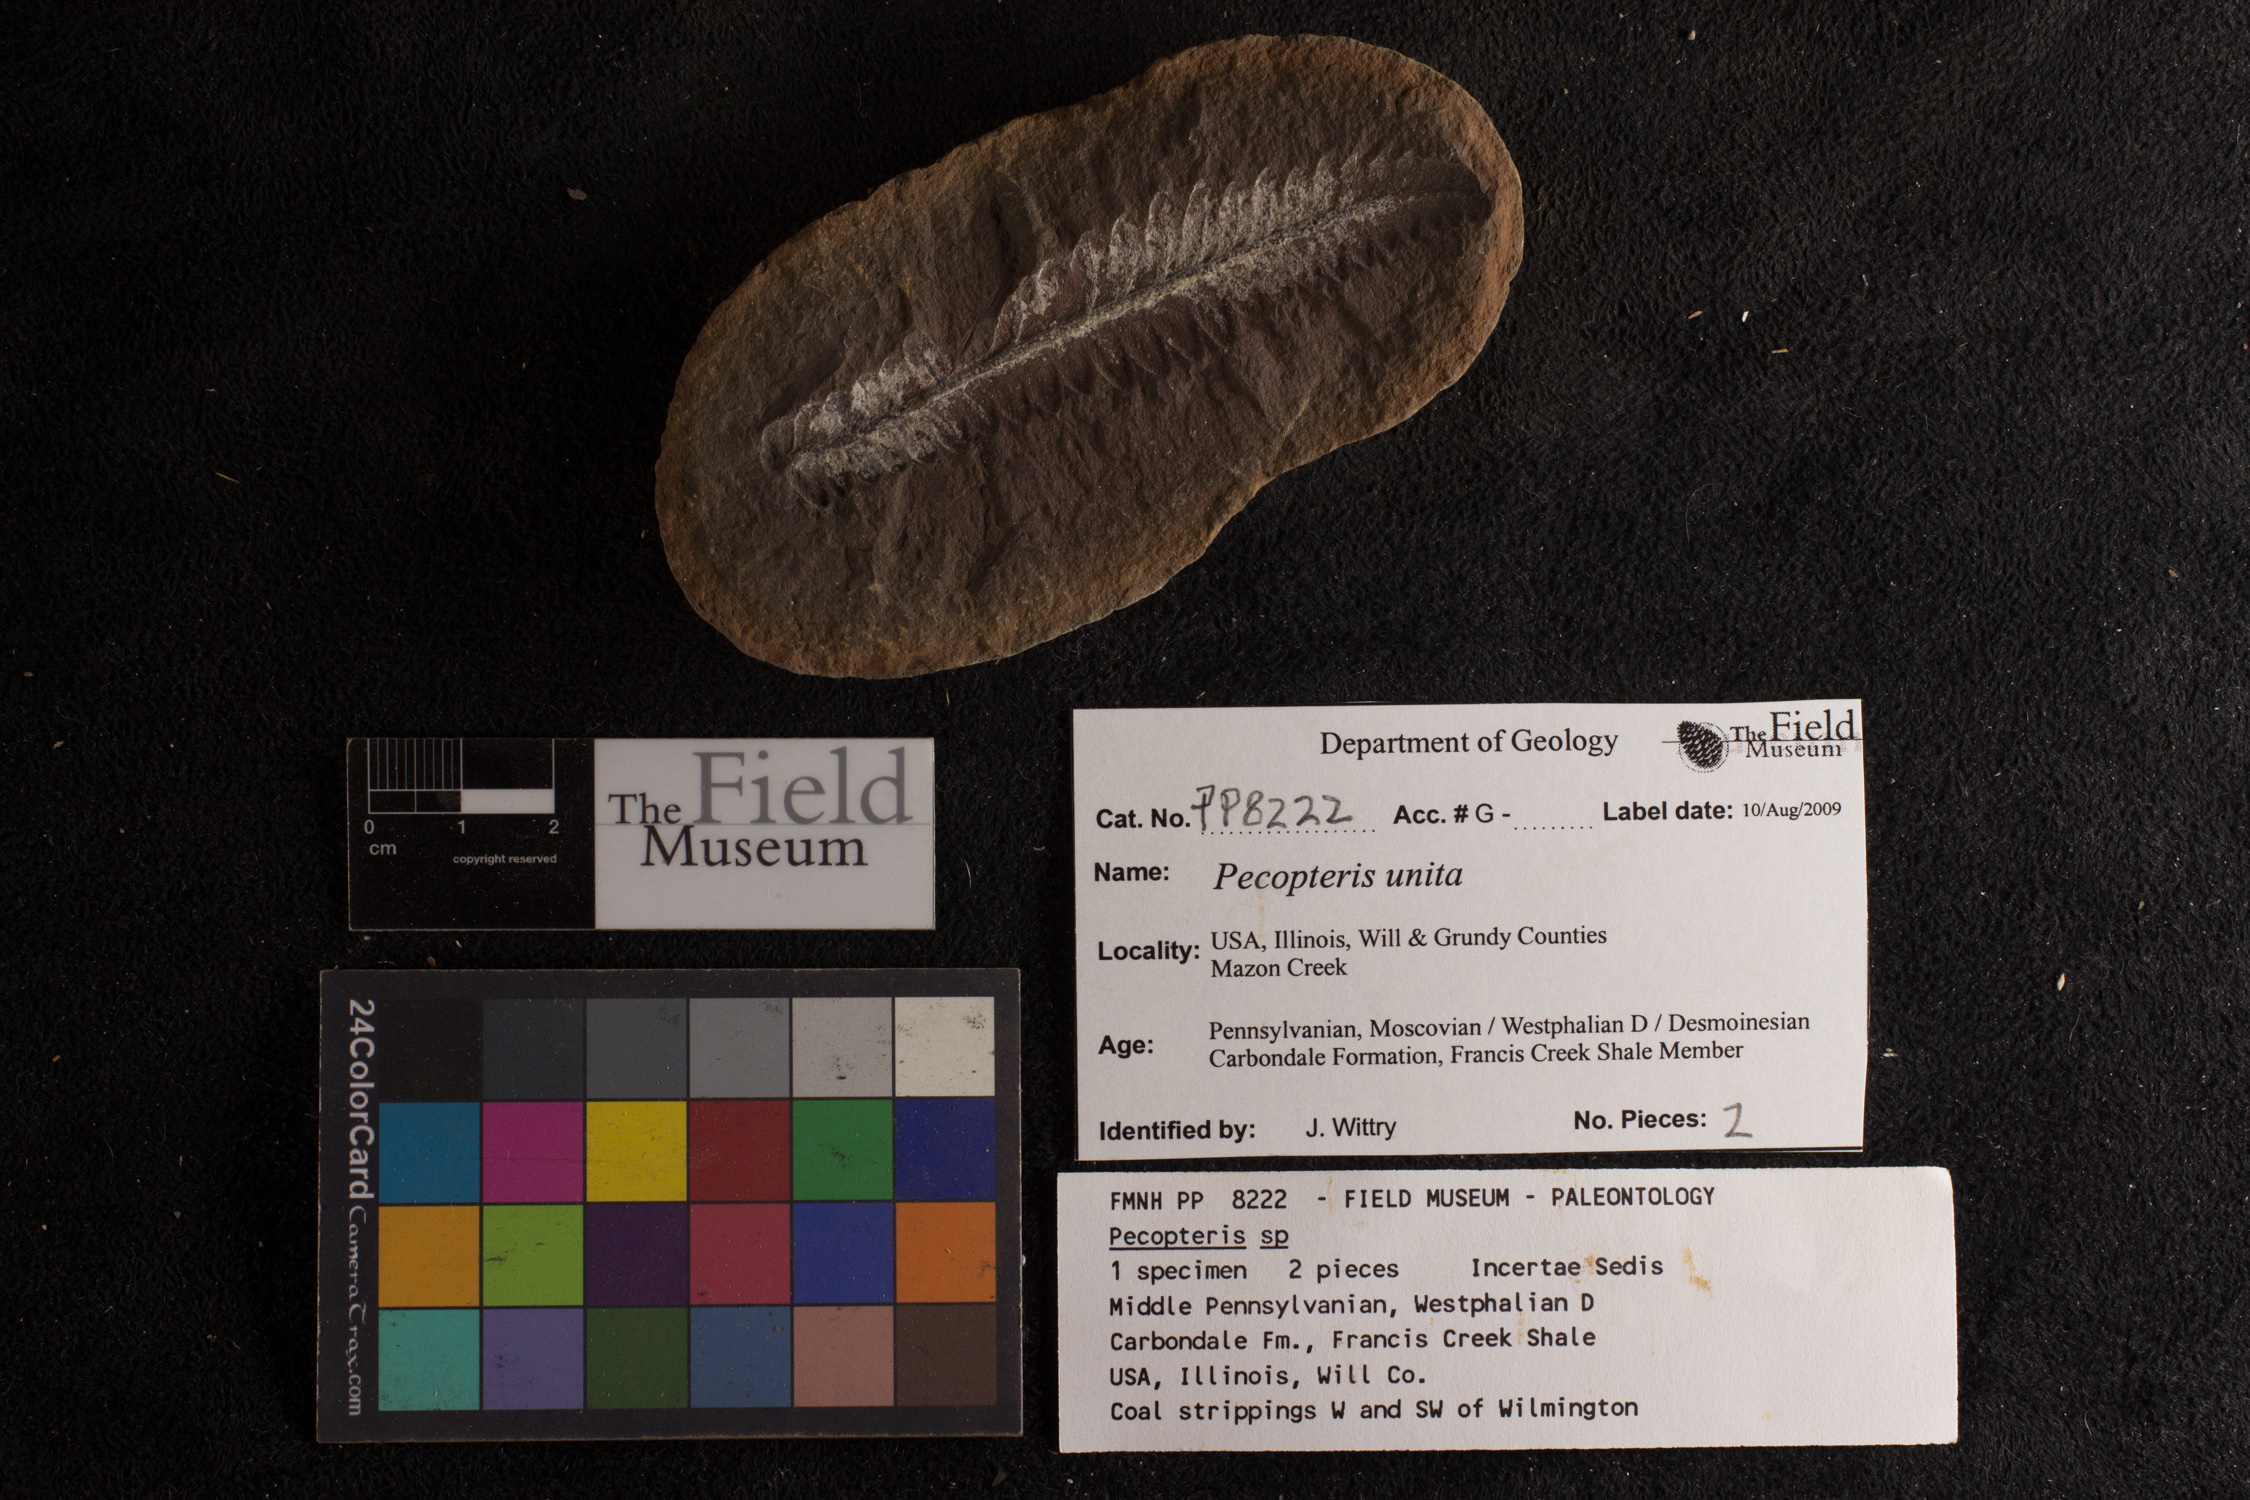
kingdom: Plantae
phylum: Tracheophyta
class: Polypodiopsida
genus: Diplazites
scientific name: Diplazites
